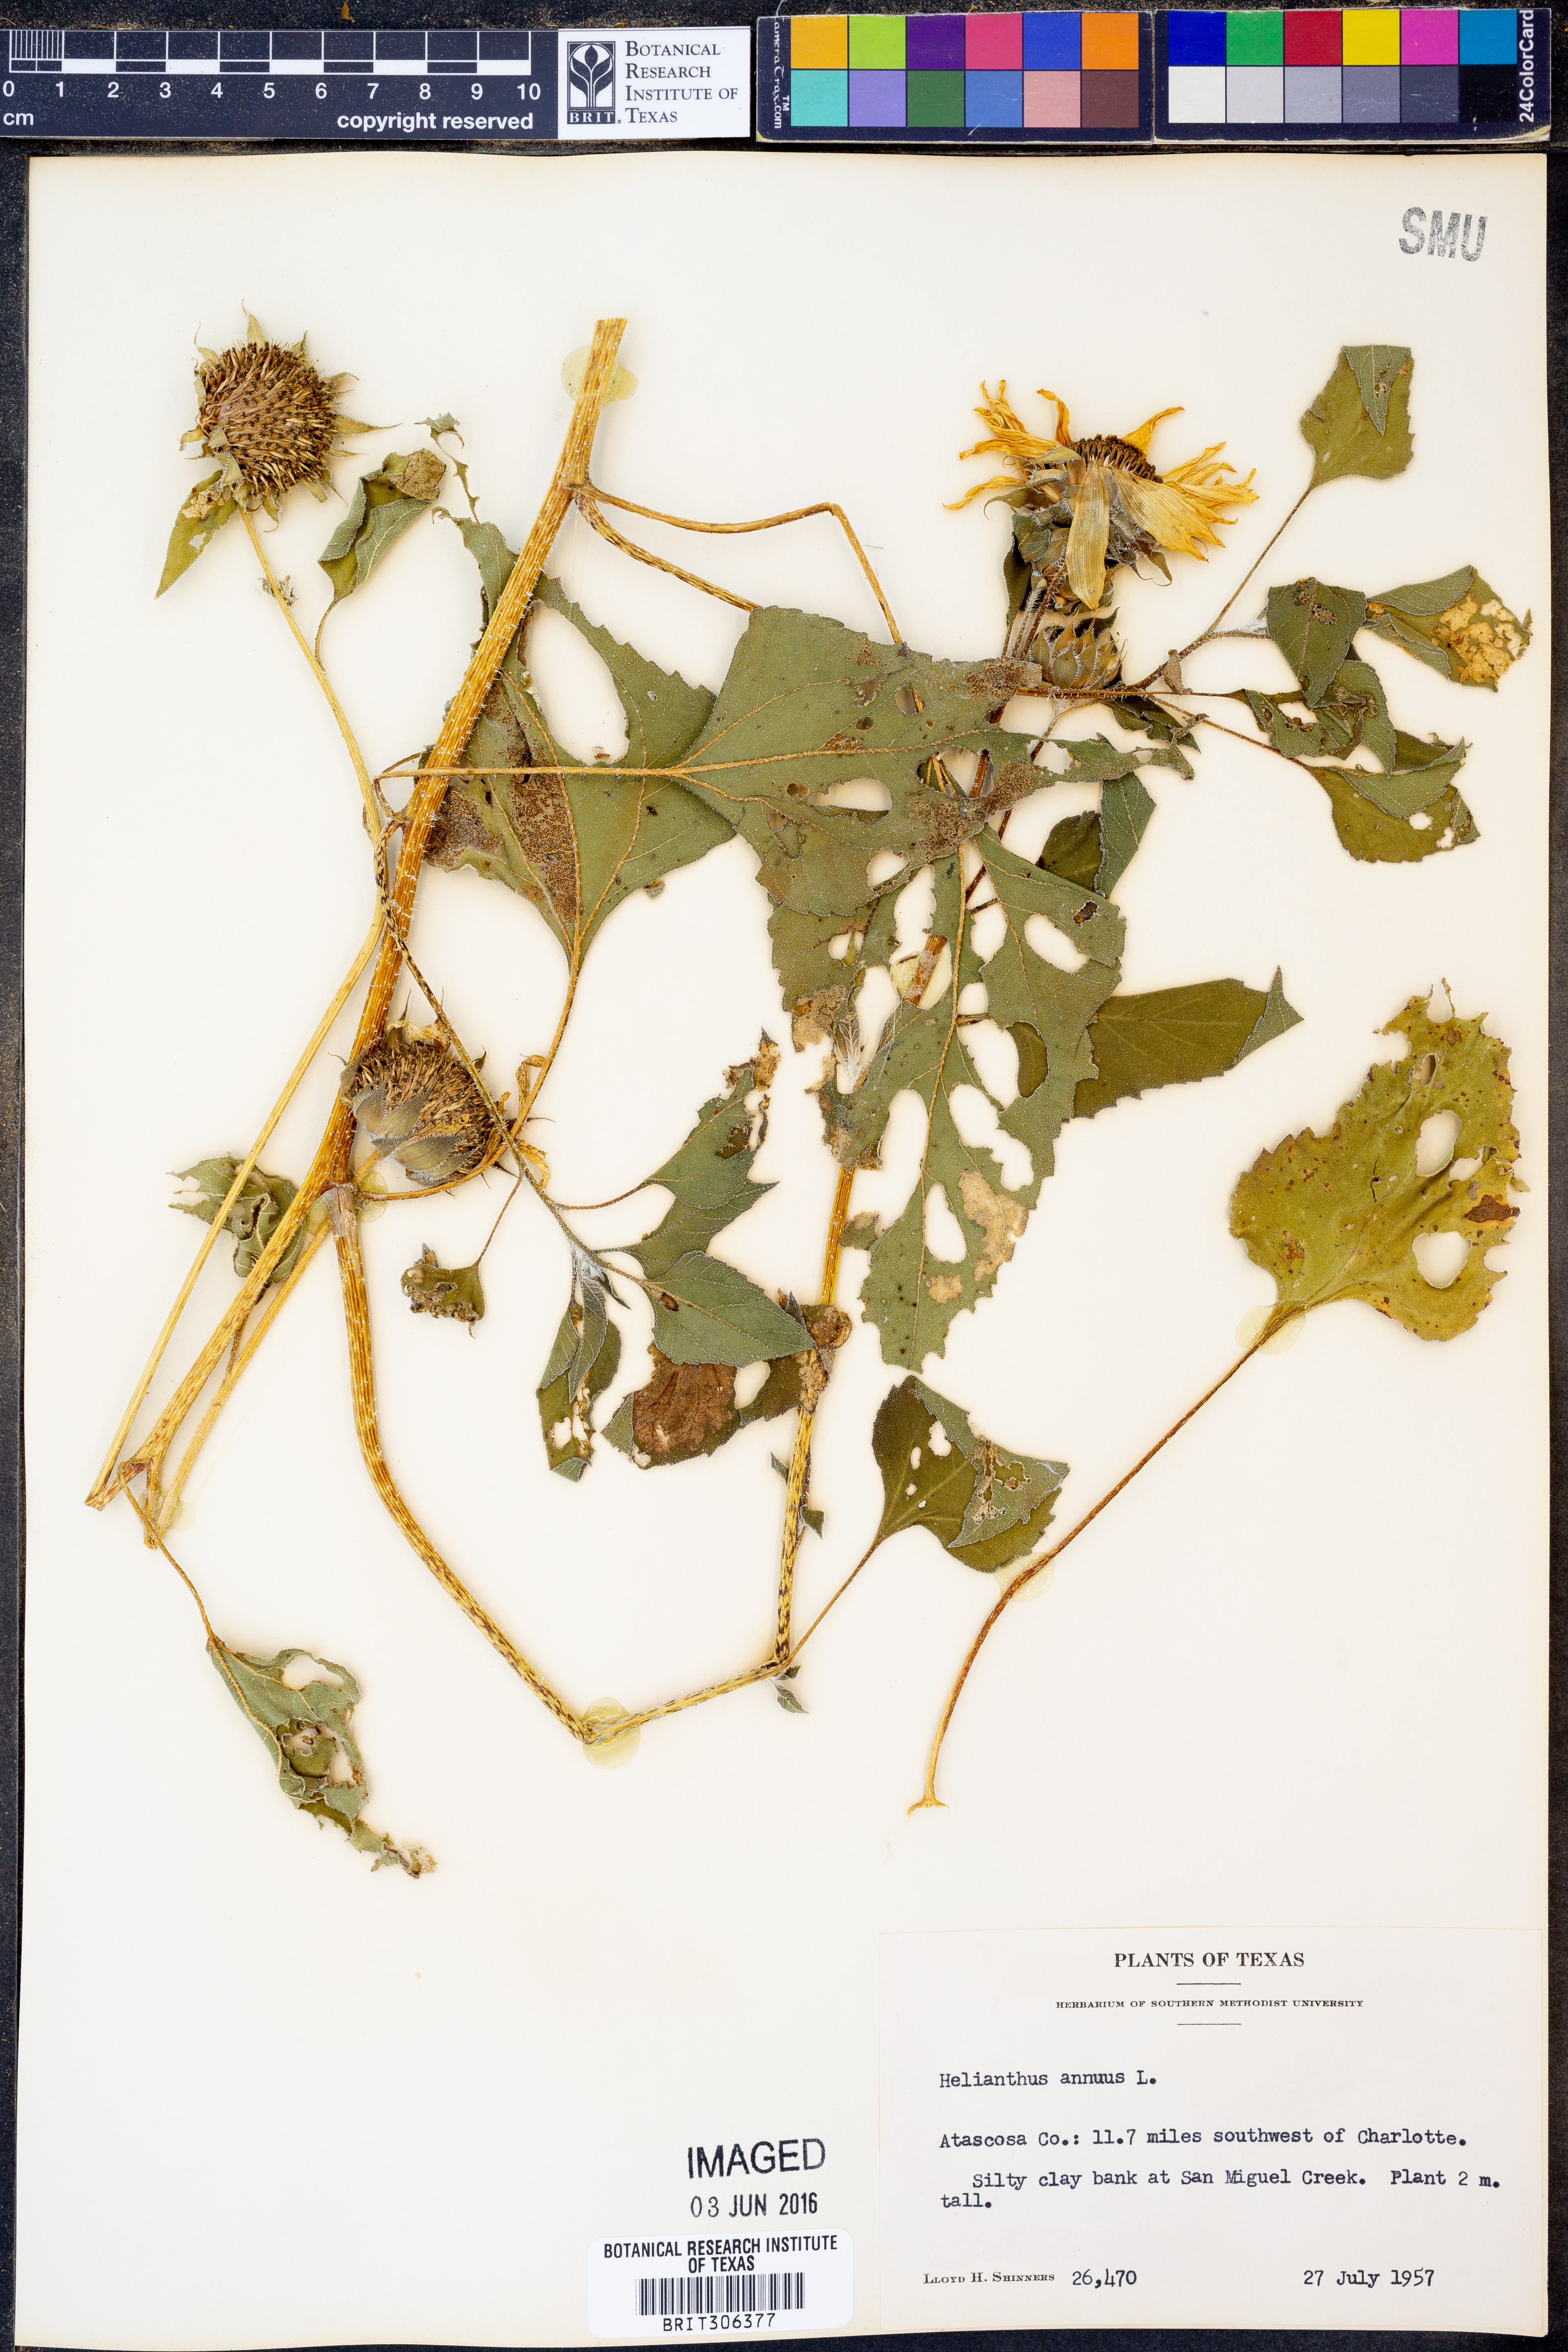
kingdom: Plantae
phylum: Tracheophyta
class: Magnoliopsida
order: Asterales
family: Asteraceae
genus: Helianthus
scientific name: Helianthus annuus
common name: Sunflower
